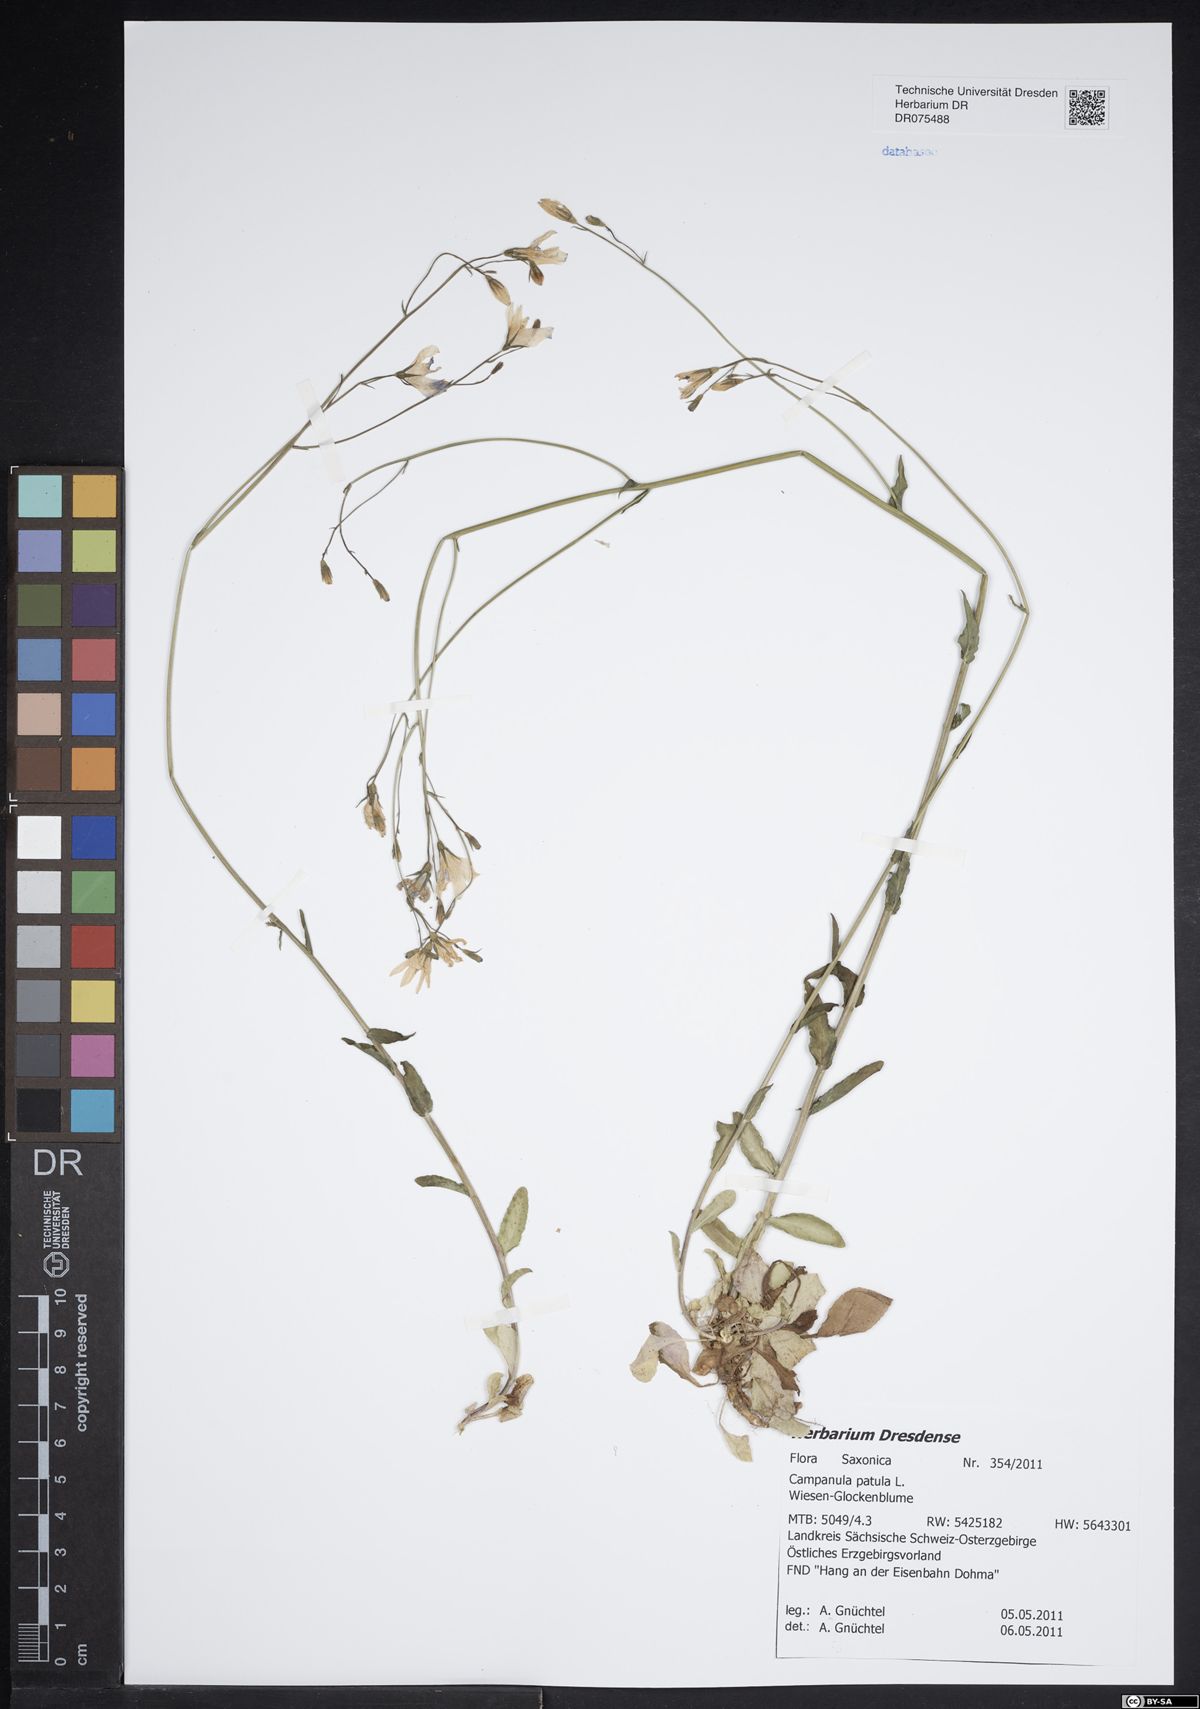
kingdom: Plantae
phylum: Tracheophyta
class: Magnoliopsida
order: Asterales
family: Campanulaceae
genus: Campanula
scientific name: Campanula patula
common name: Spreading bellflower
